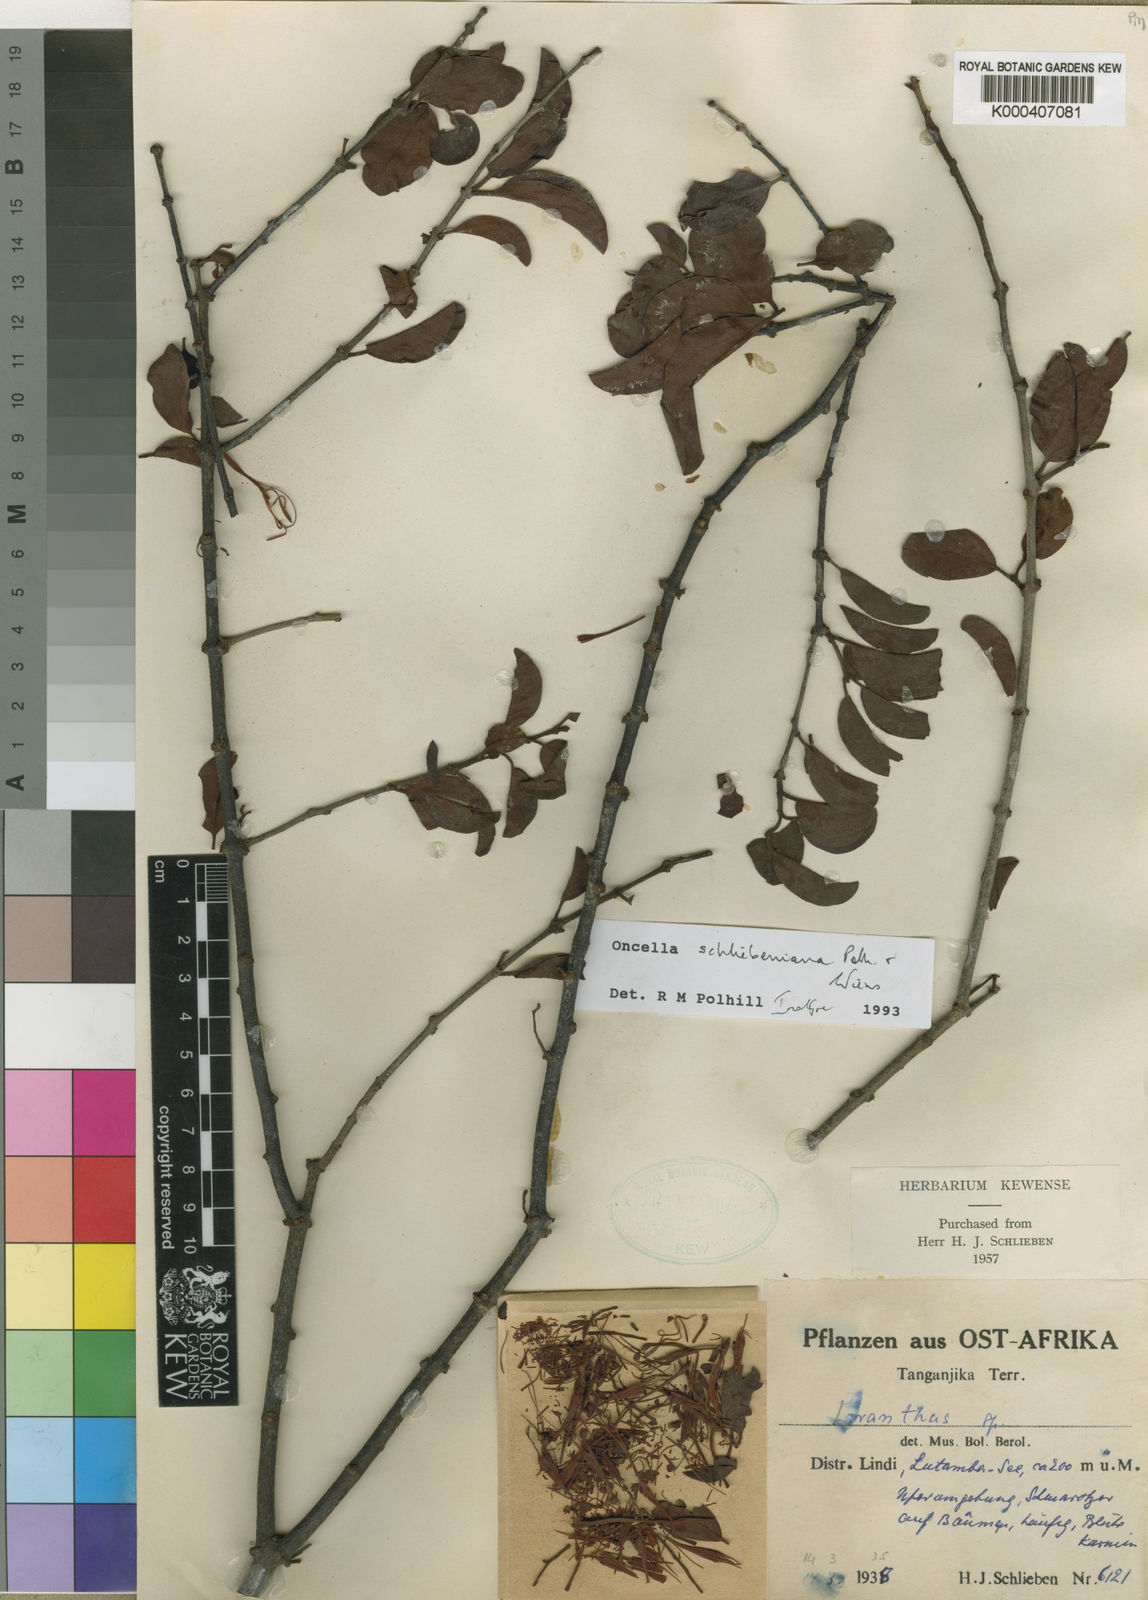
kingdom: Plantae
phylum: Tracheophyta
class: Magnoliopsida
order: Santalales
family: Loranthaceae
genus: Oncella
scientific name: Oncella schliebeniana
